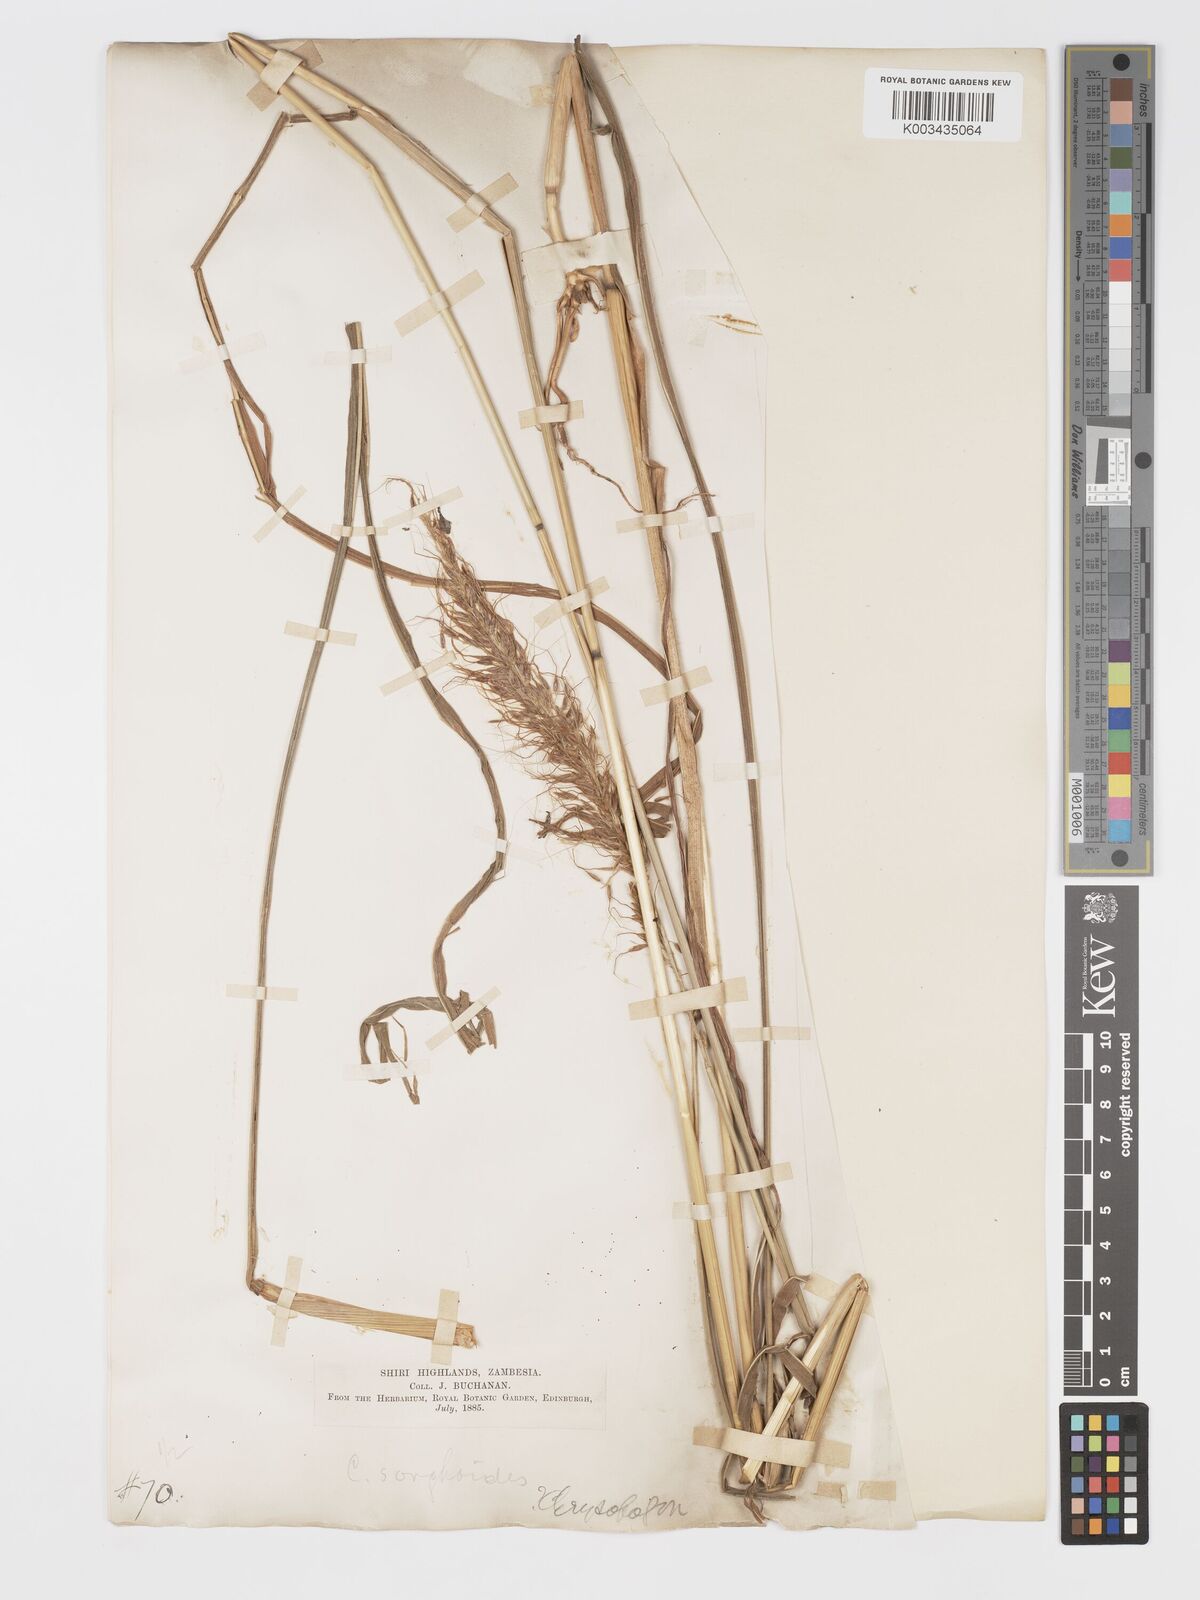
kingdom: Plantae
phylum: Tracheophyta
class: Liliopsida
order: Poales
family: Poaceae
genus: Cleistachne
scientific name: Cleistachne sorghoides
